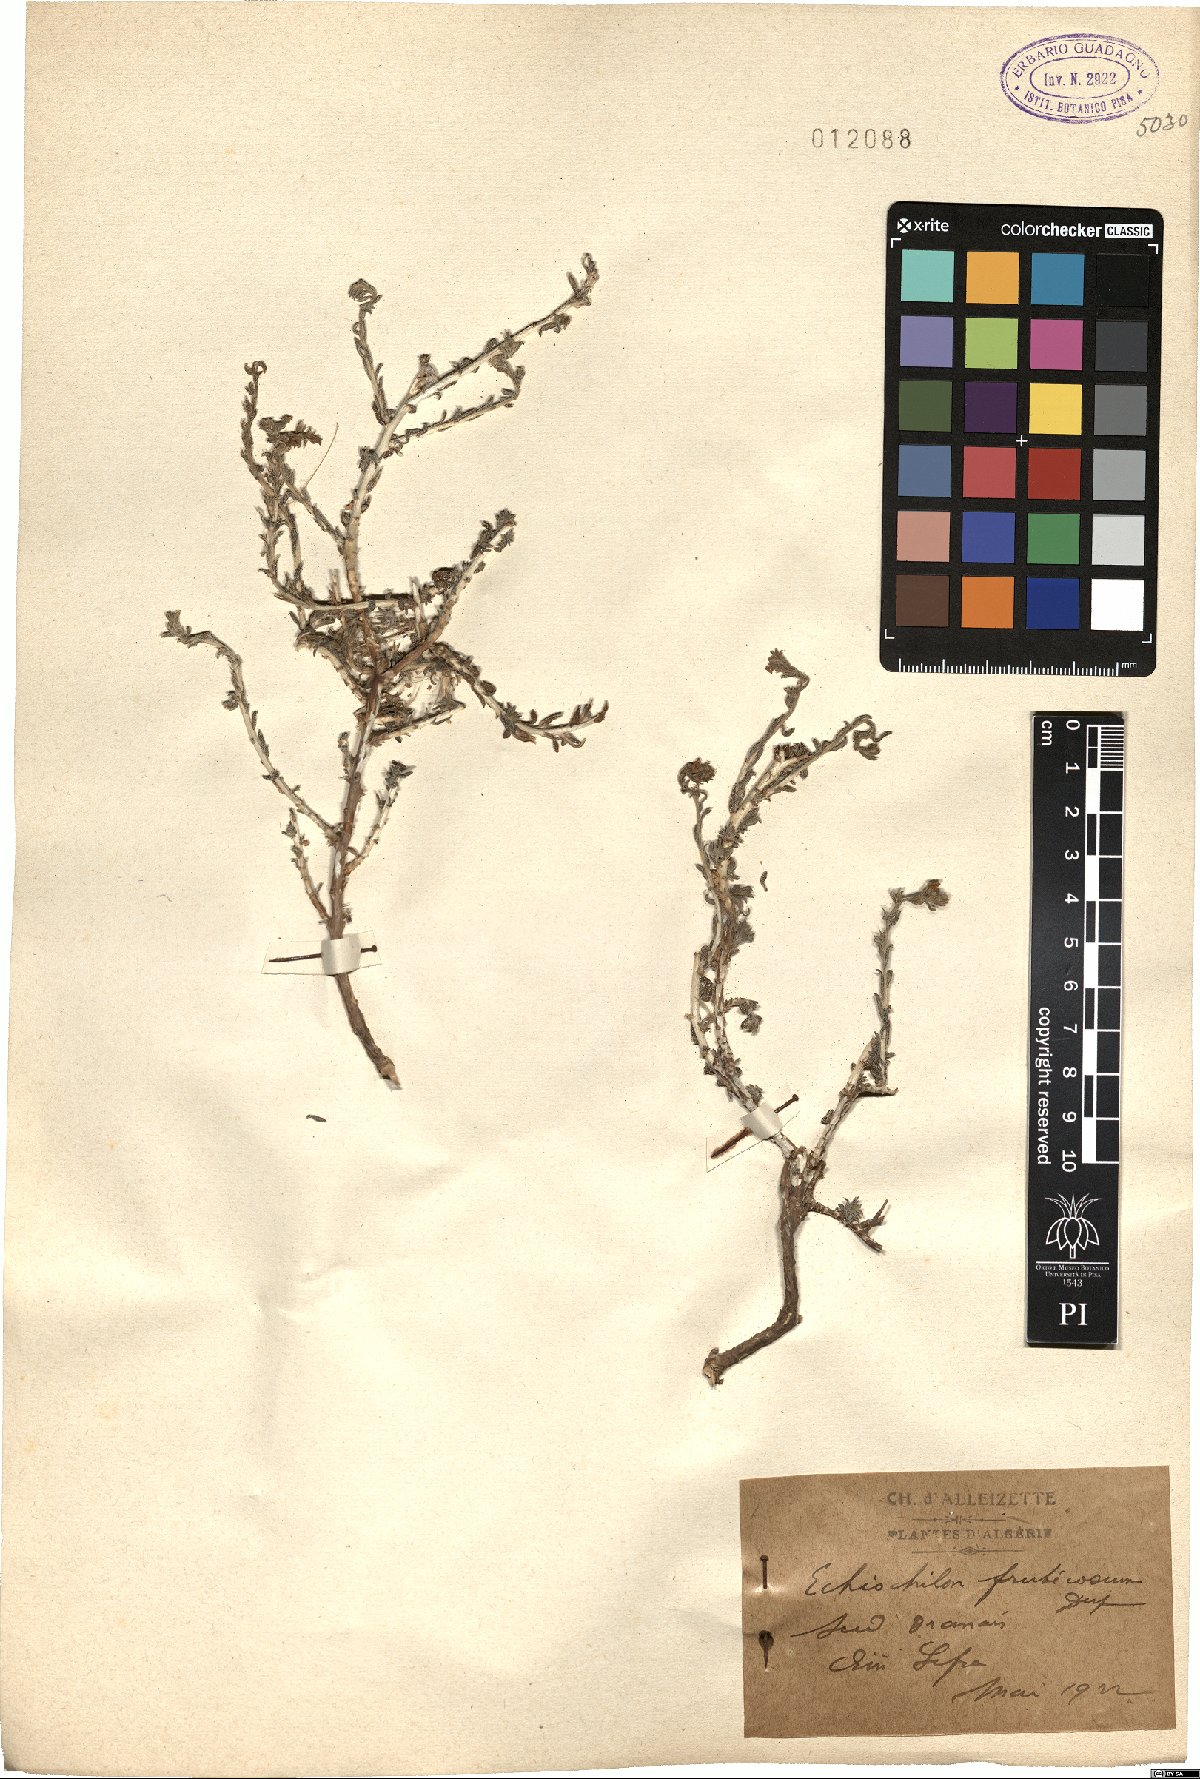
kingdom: Plantae
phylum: Tracheophyta
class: Magnoliopsida
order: Boraginales
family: Boraginaceae
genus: Echiochilon
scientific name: Echiochilon fruticosum
